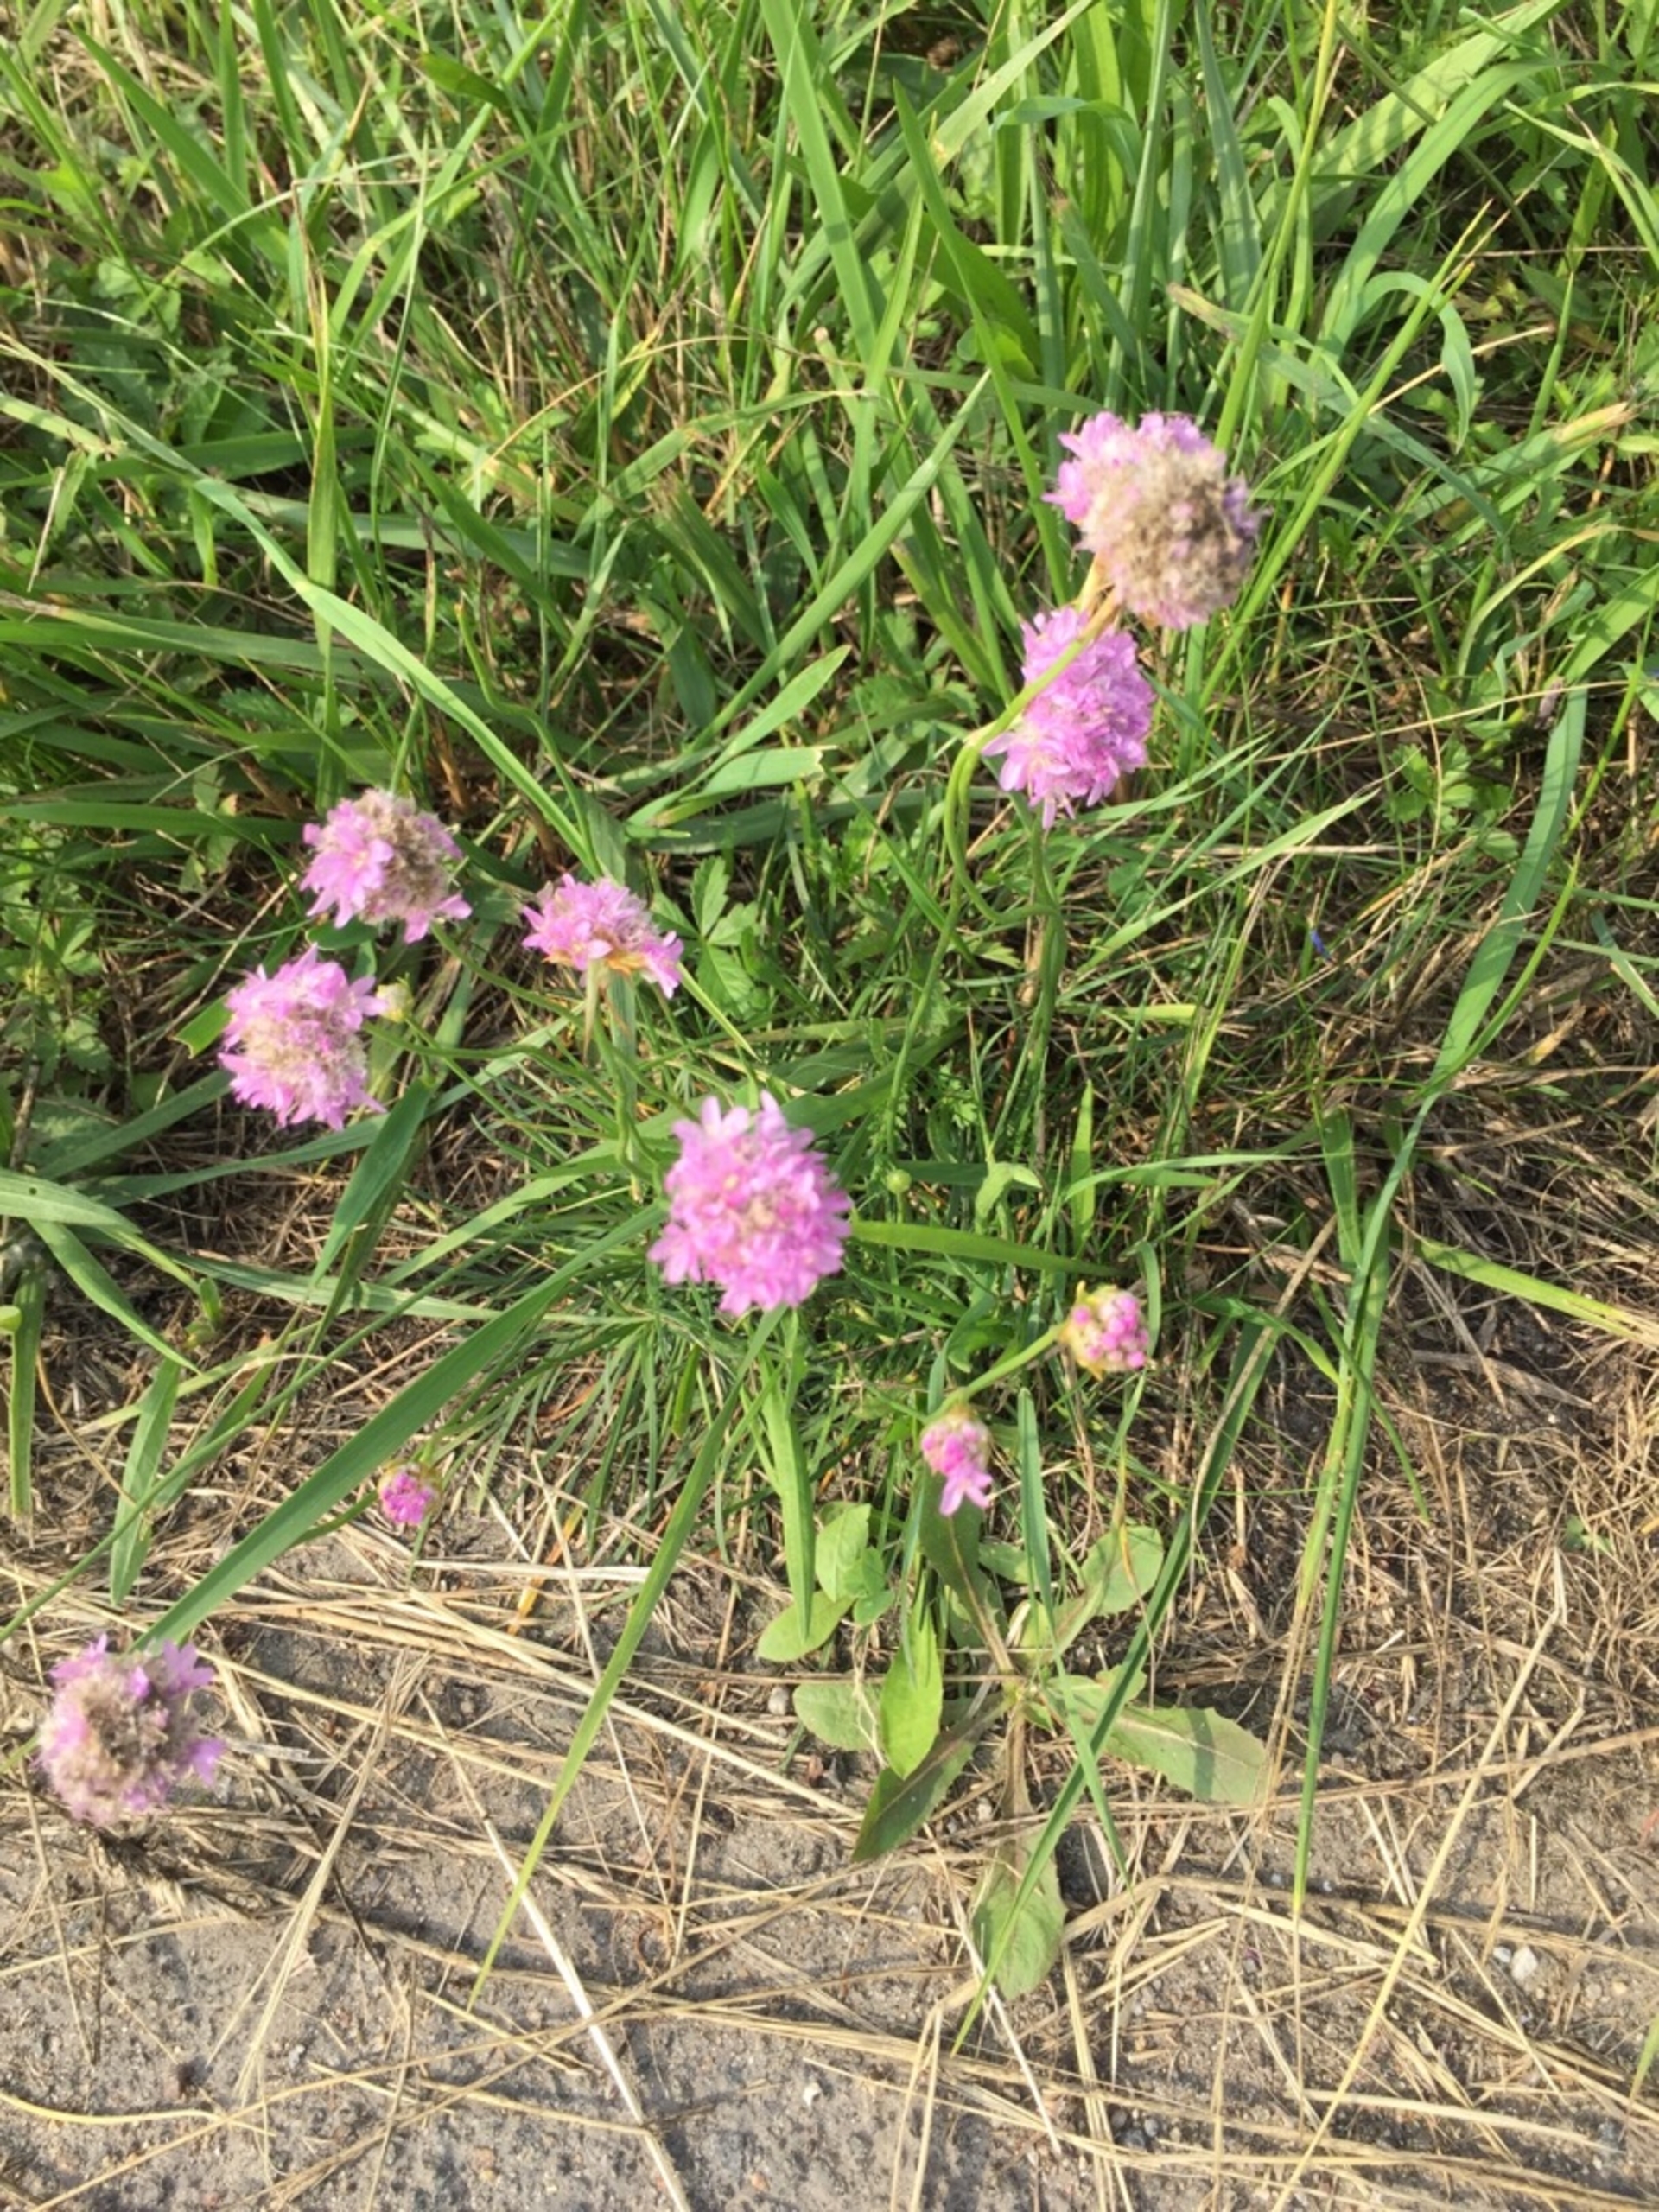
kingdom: Plantae
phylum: Tracheophyta
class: Magnoliopsida
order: Caryophyllales
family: Plumbaginaceae
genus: Armeria
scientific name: Armeria maritima
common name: Engelskgræs
